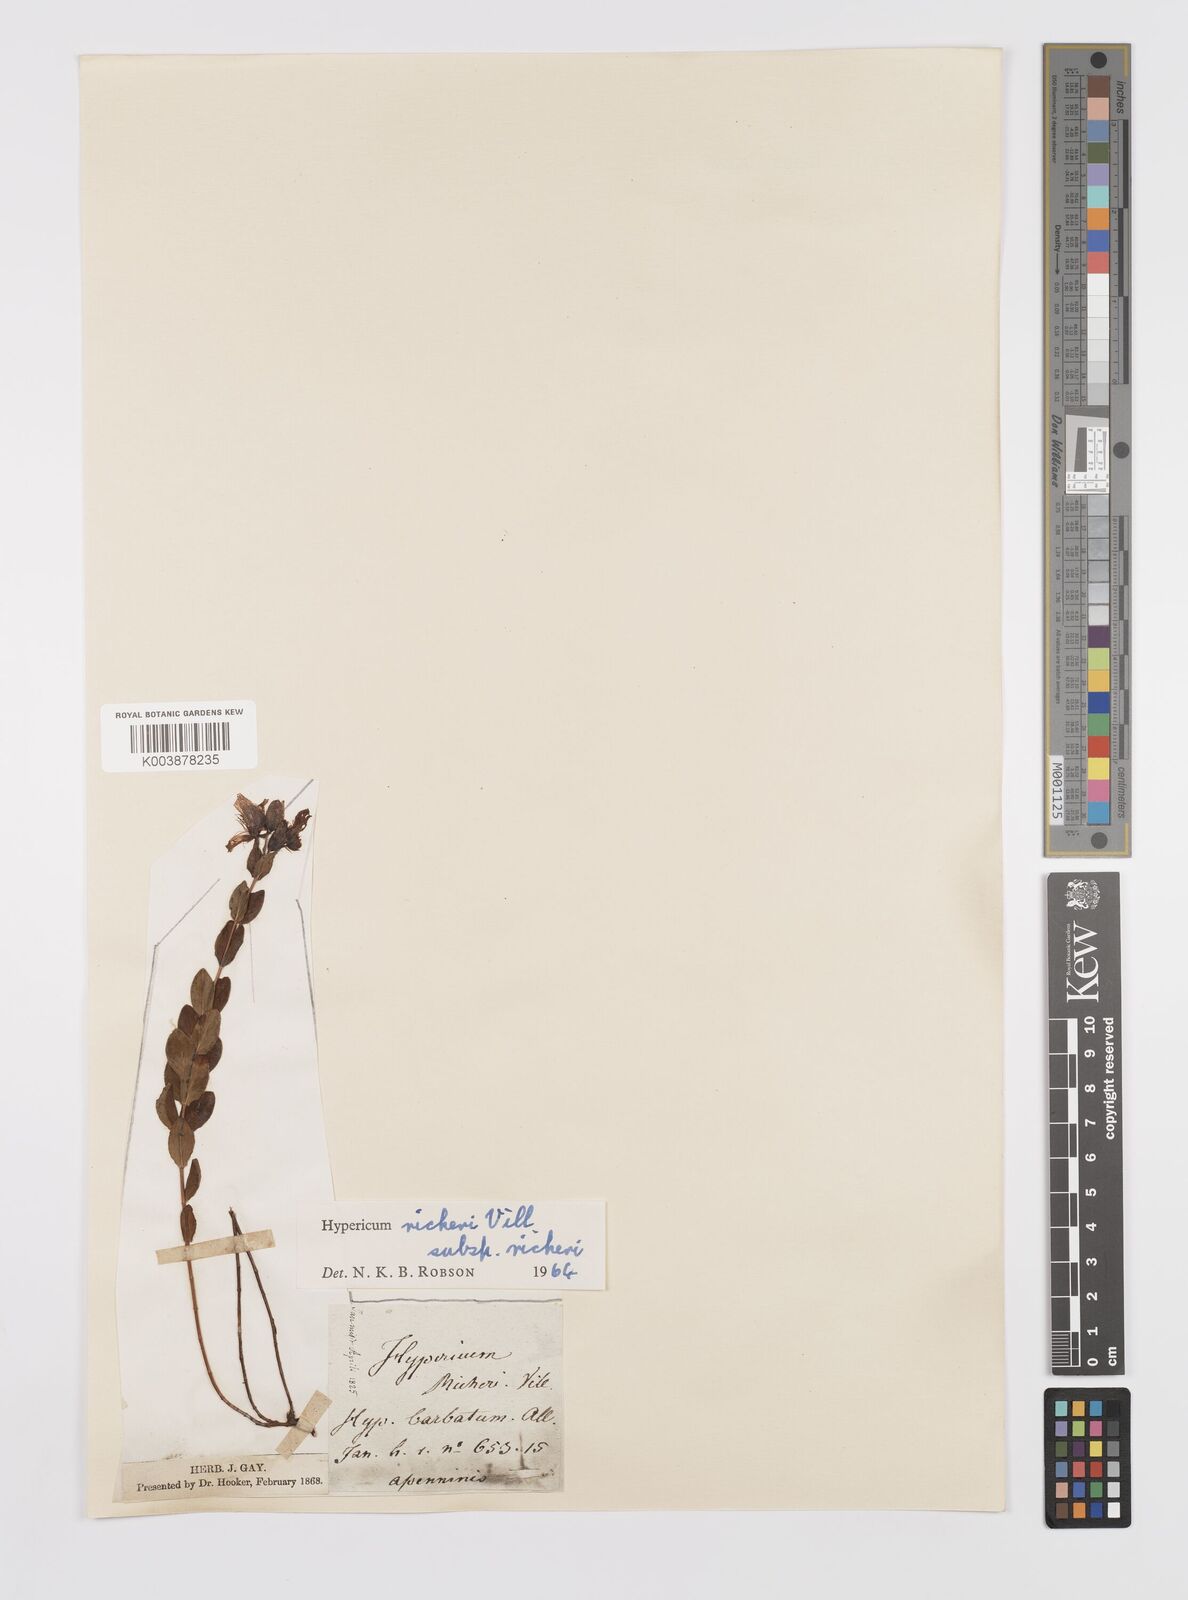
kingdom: Plantae
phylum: Tracheophyta
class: Magnoliopsida
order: Malpighiales
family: Hypericaceae
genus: Hypericum
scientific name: Hypericum richeri
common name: Alpine st john's-wort
